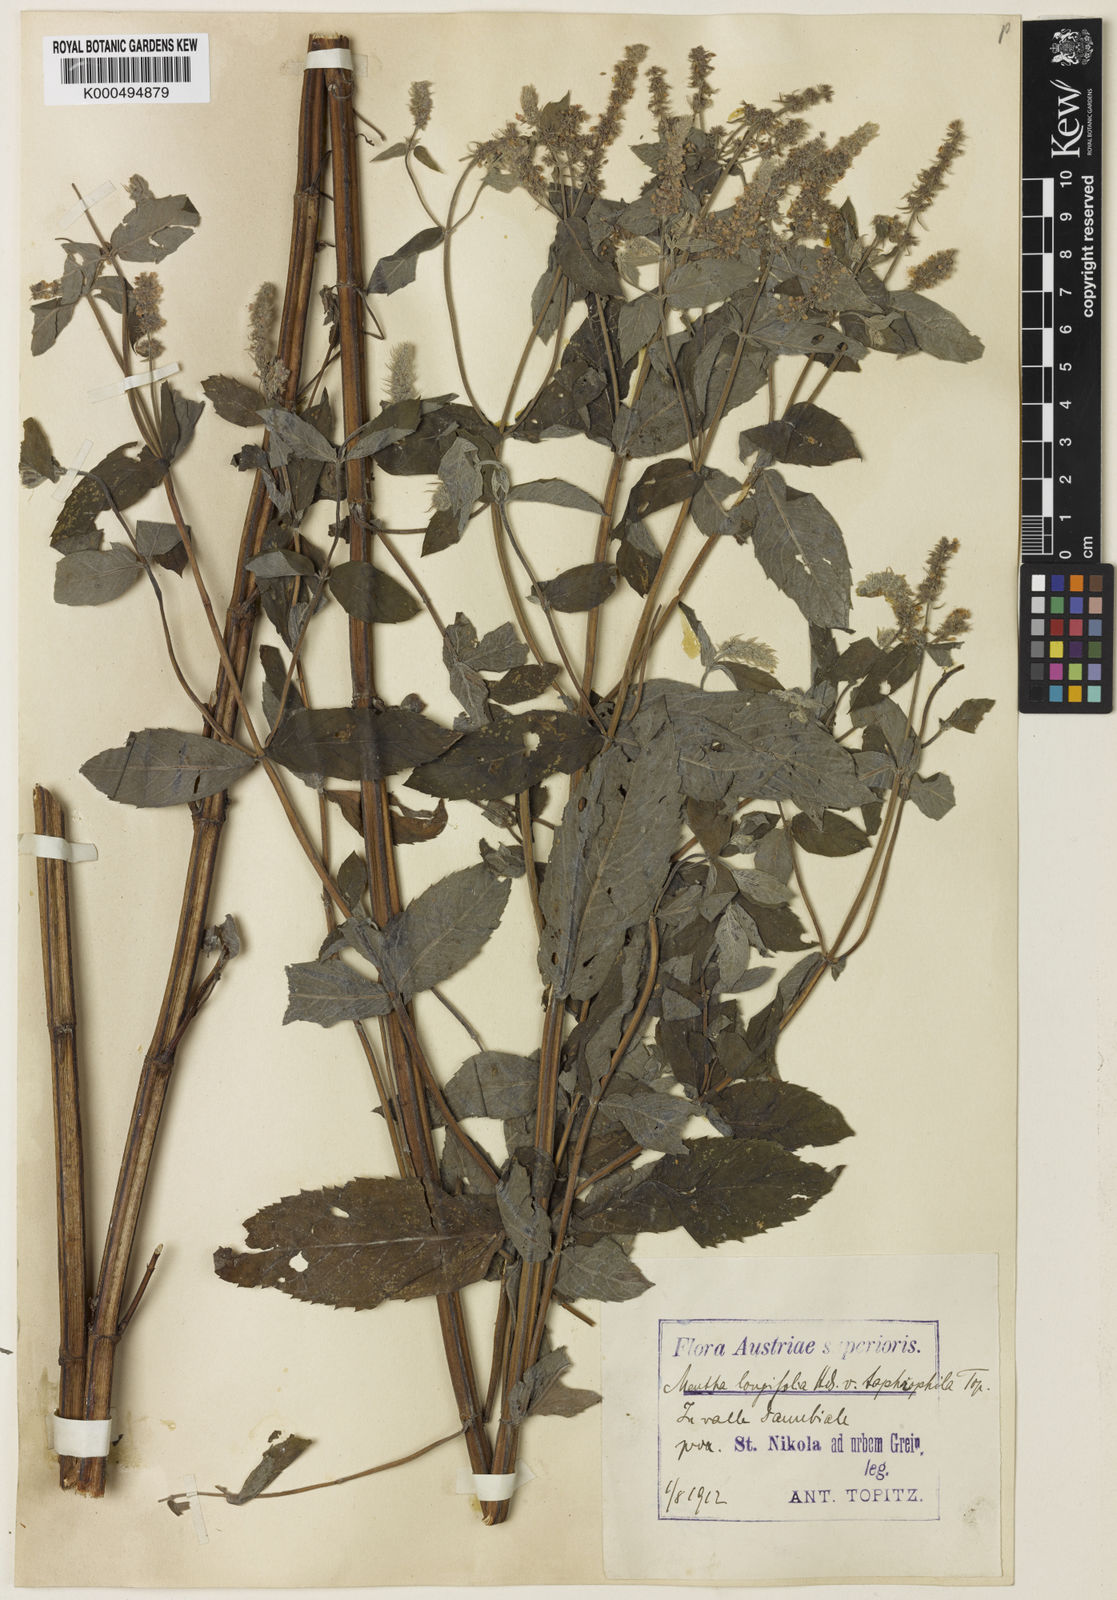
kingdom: Plantae
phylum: Tracheophyta
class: Magnoliopsida
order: Lamiales
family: Lamiaceae
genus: Mentha
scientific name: Mentha rotundifolia
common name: Bigleaf mint
